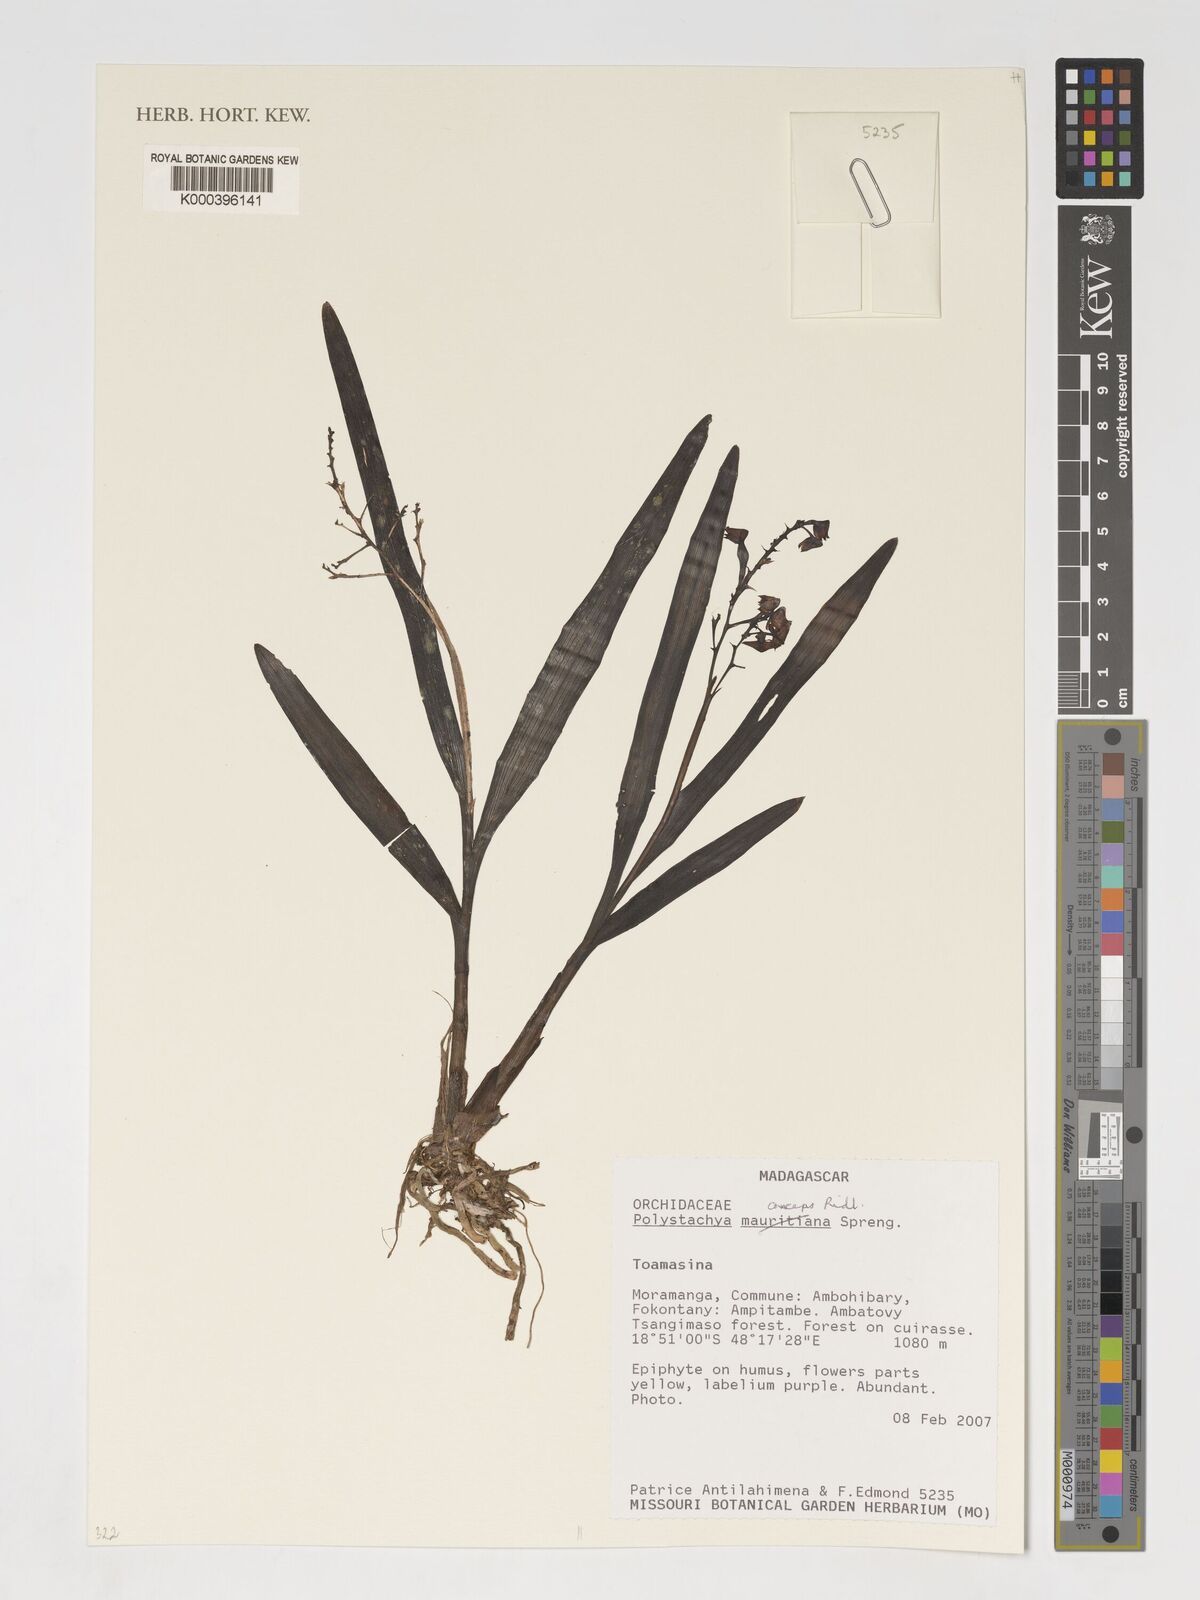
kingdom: Plantae
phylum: Tracheophyta
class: Liliopsida
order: Asparagales
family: Orchidaceae
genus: Polystachya
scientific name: Polystachya anceps
